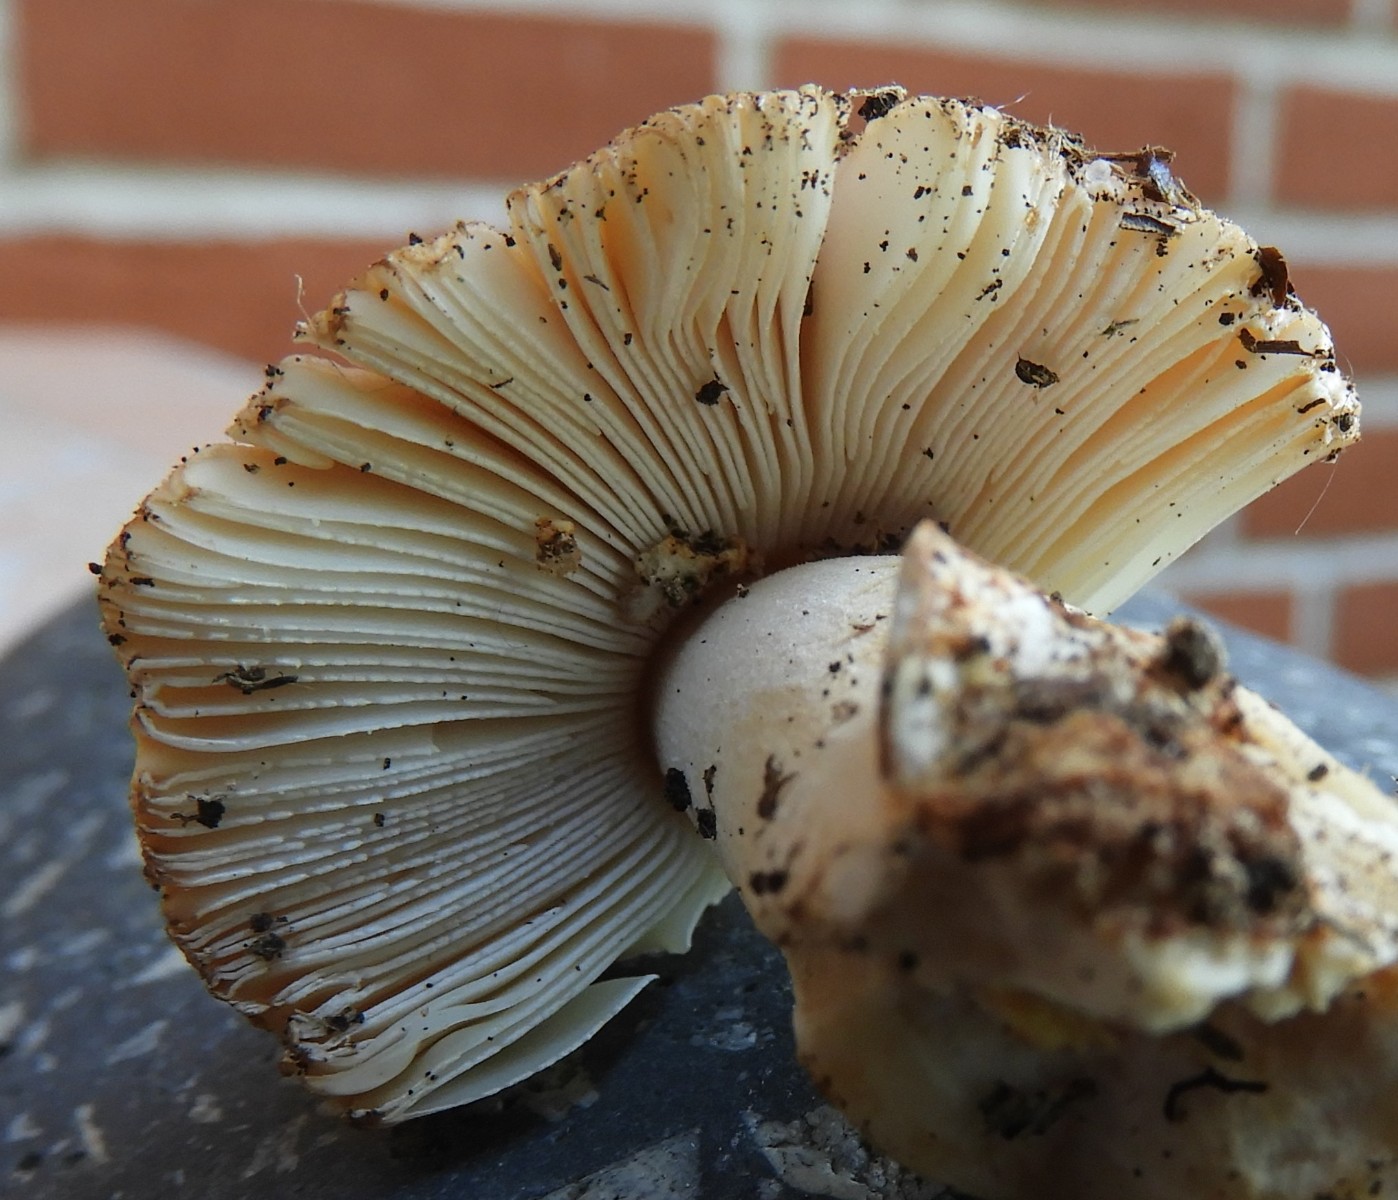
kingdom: Fungi
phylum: Basidiomycota
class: Agaricomycetes
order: Agaricales
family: Amanitaceae
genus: Amanita
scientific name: Amanita
